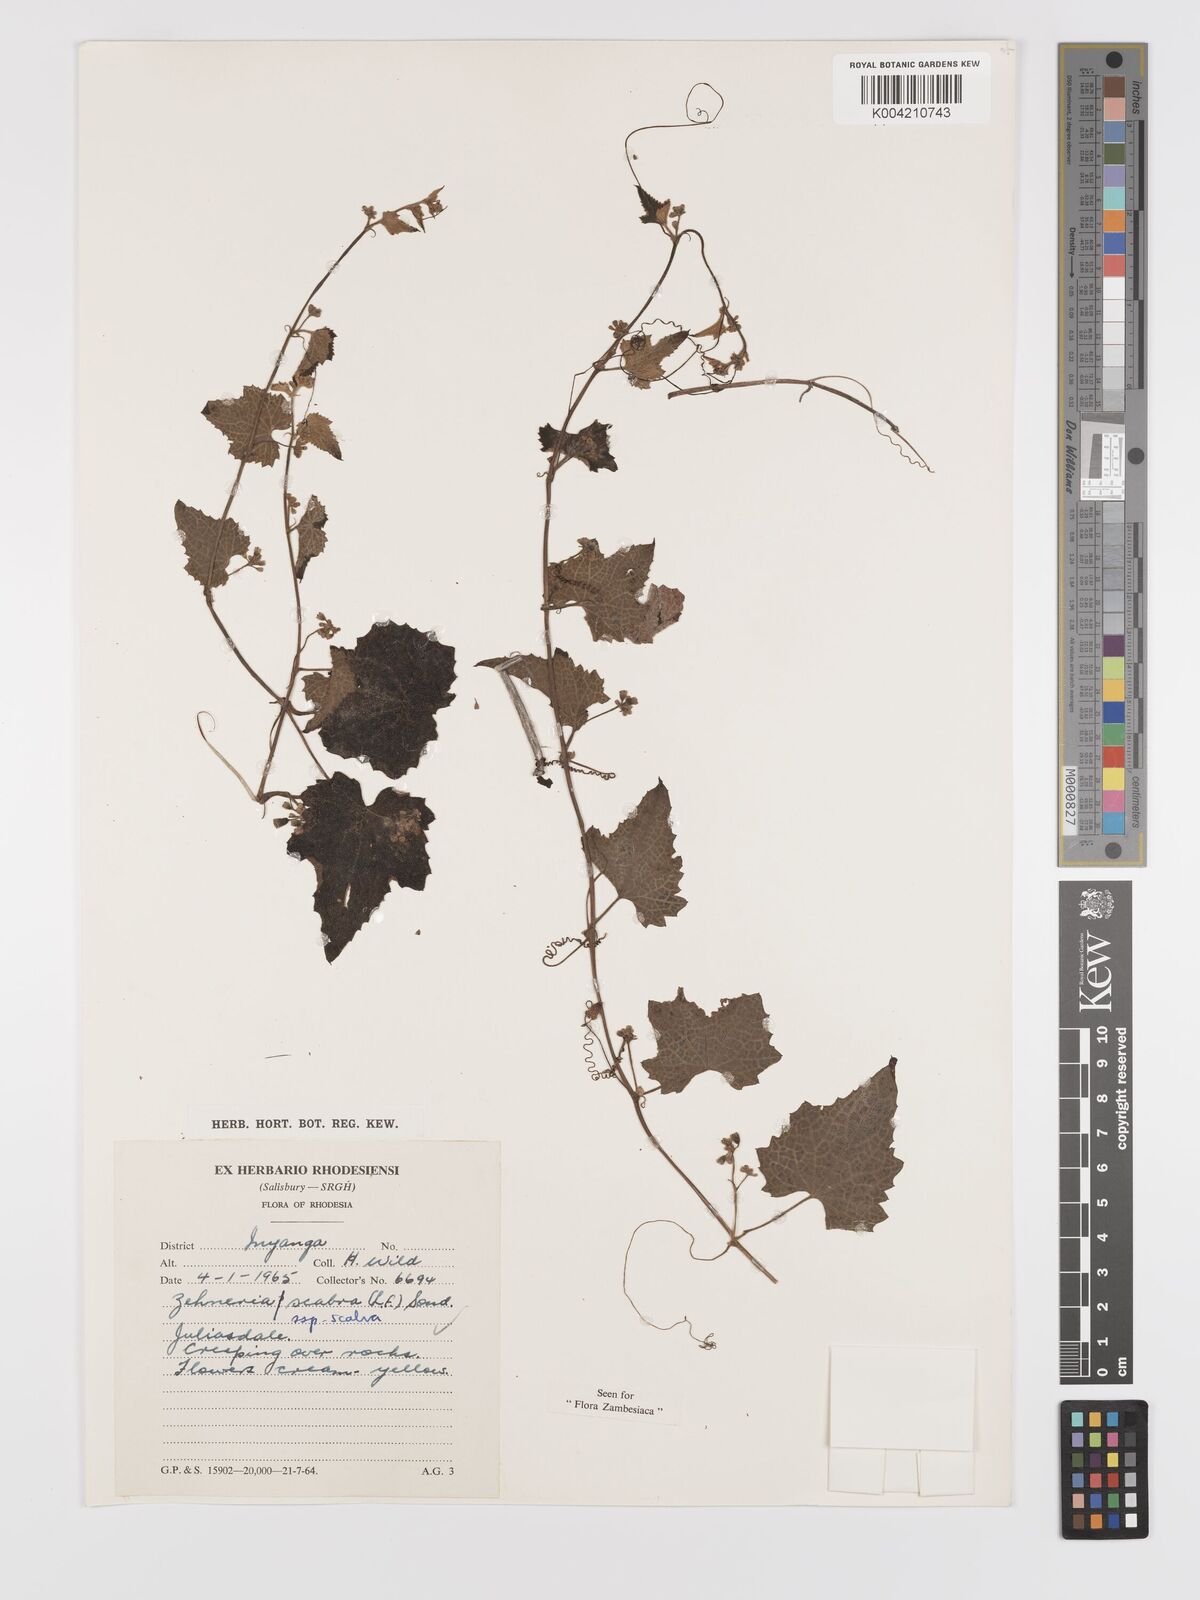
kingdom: Plantae
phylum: Tracheophyta
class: Magnoliopsida
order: Cucurbitales
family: Cucurbitaceae
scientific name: Cucurbitaceae
